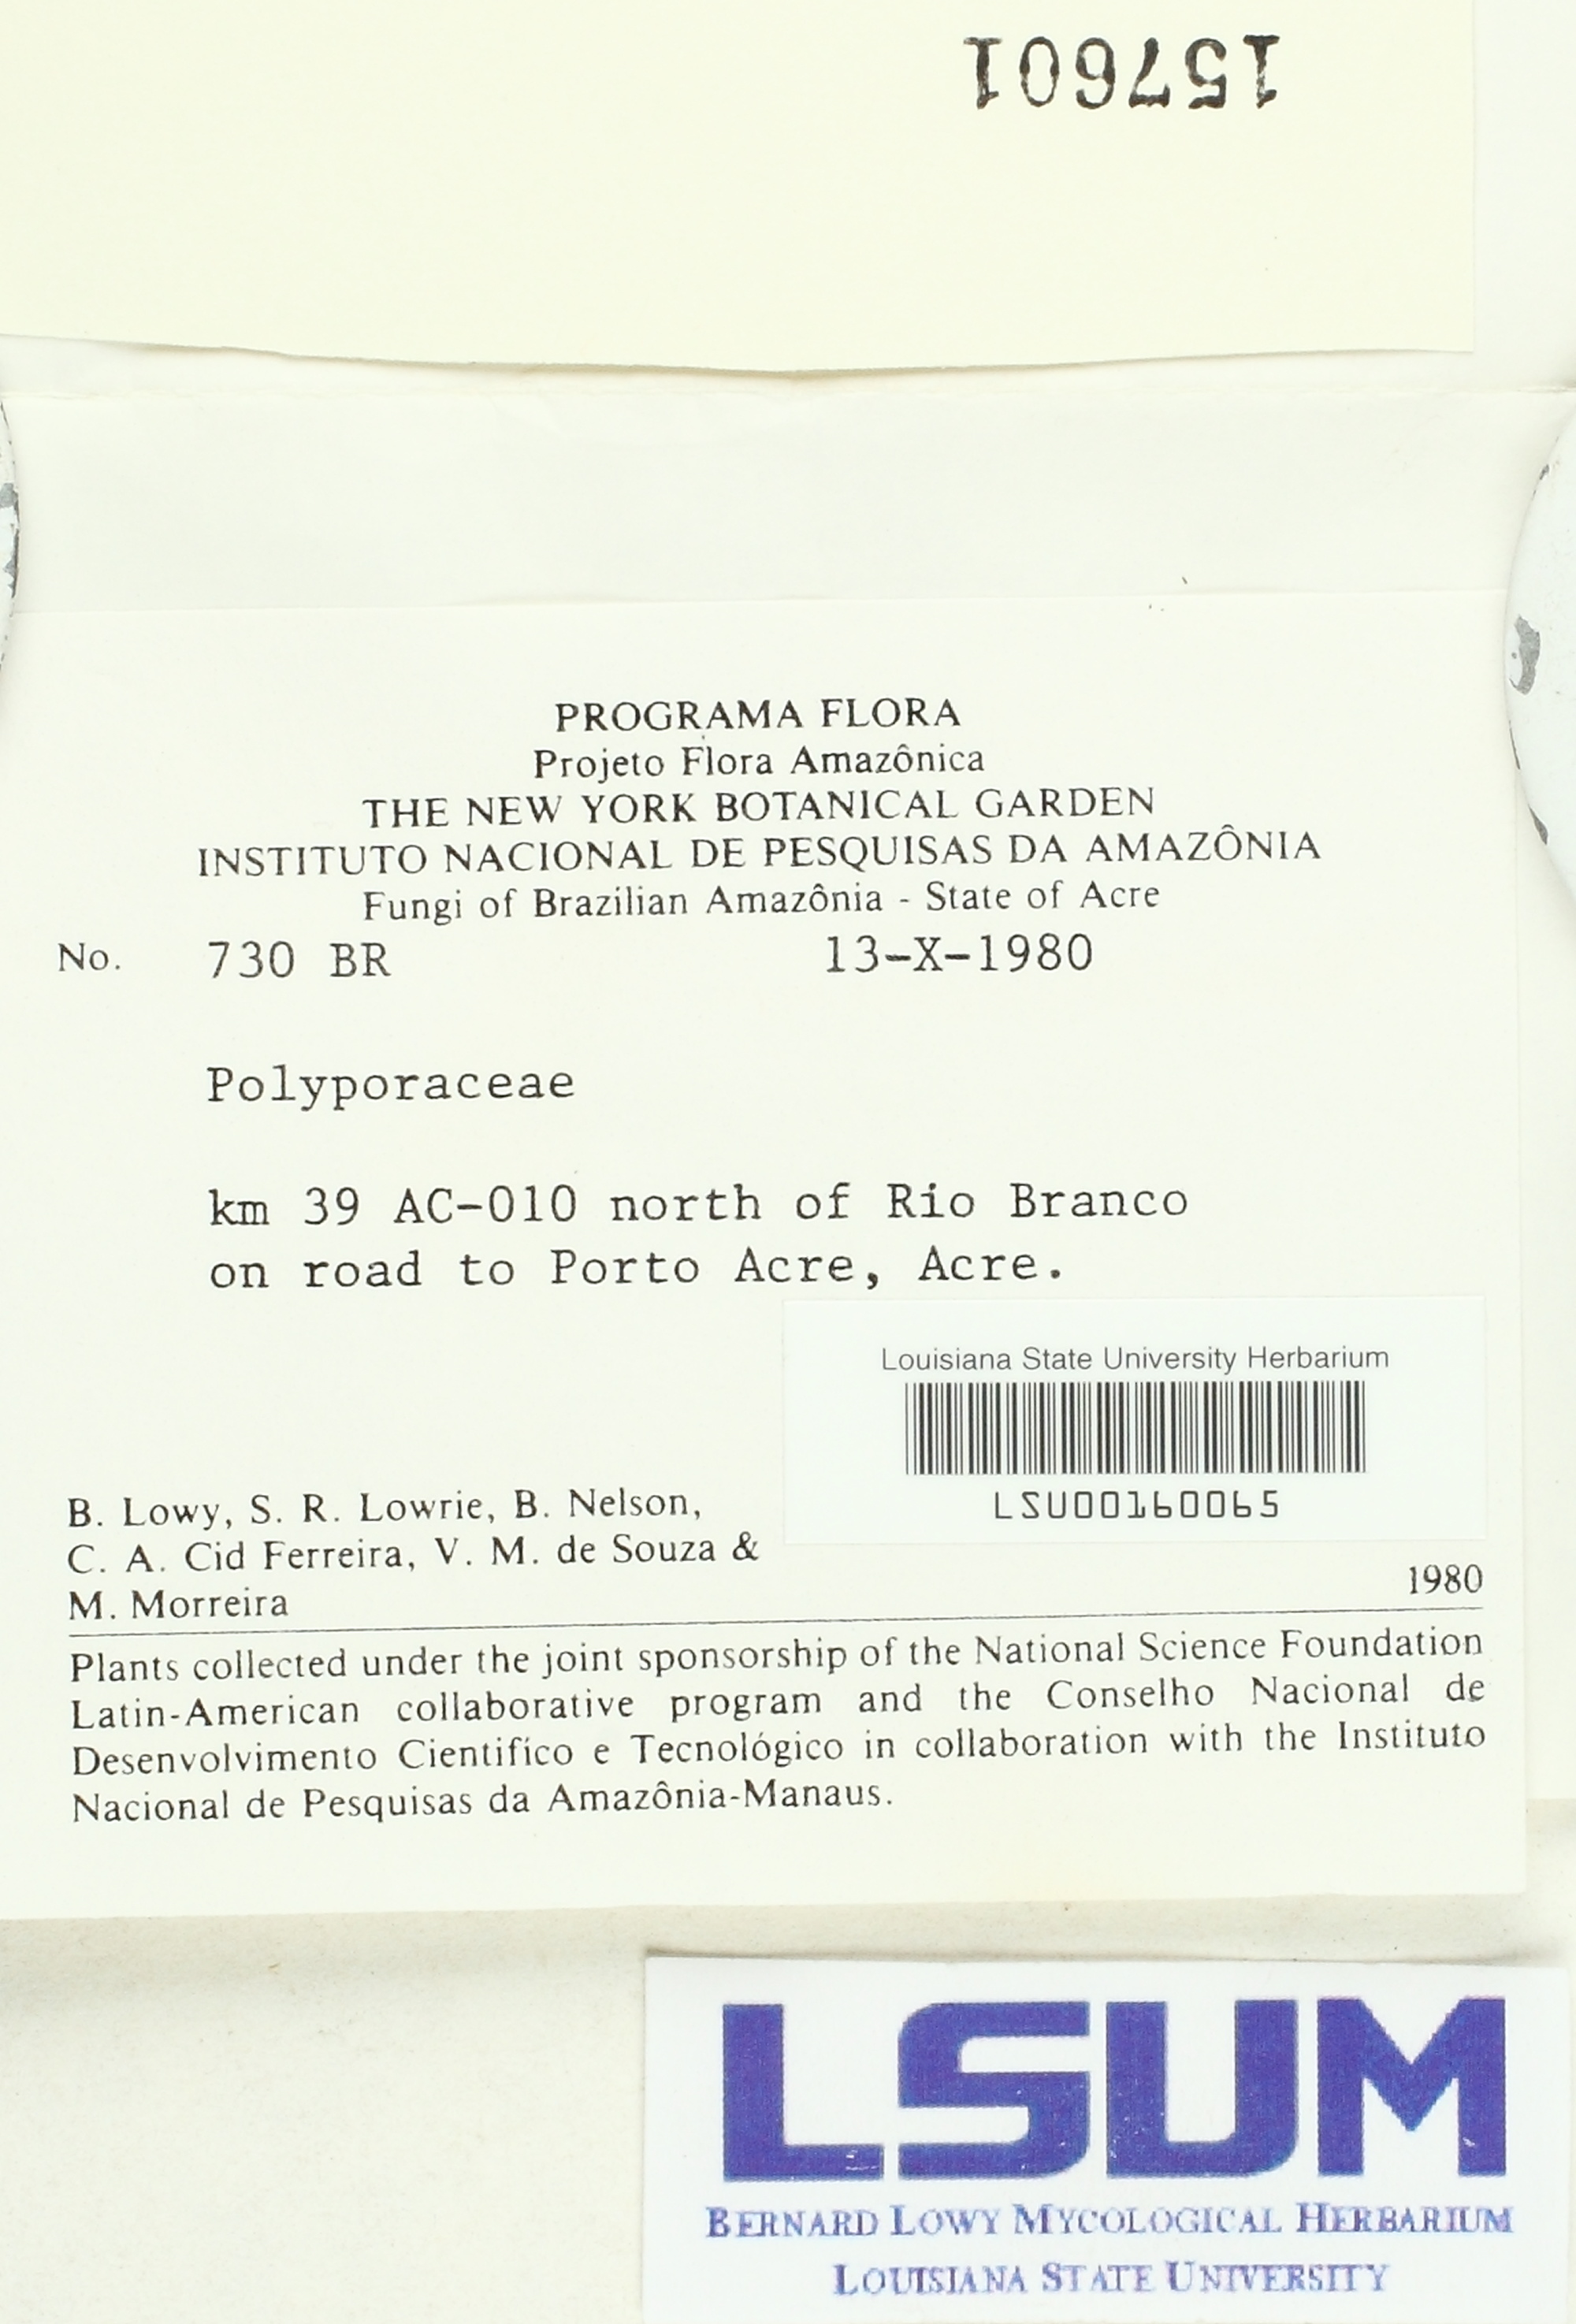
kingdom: Fungi
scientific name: Fungi
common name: Fungi
